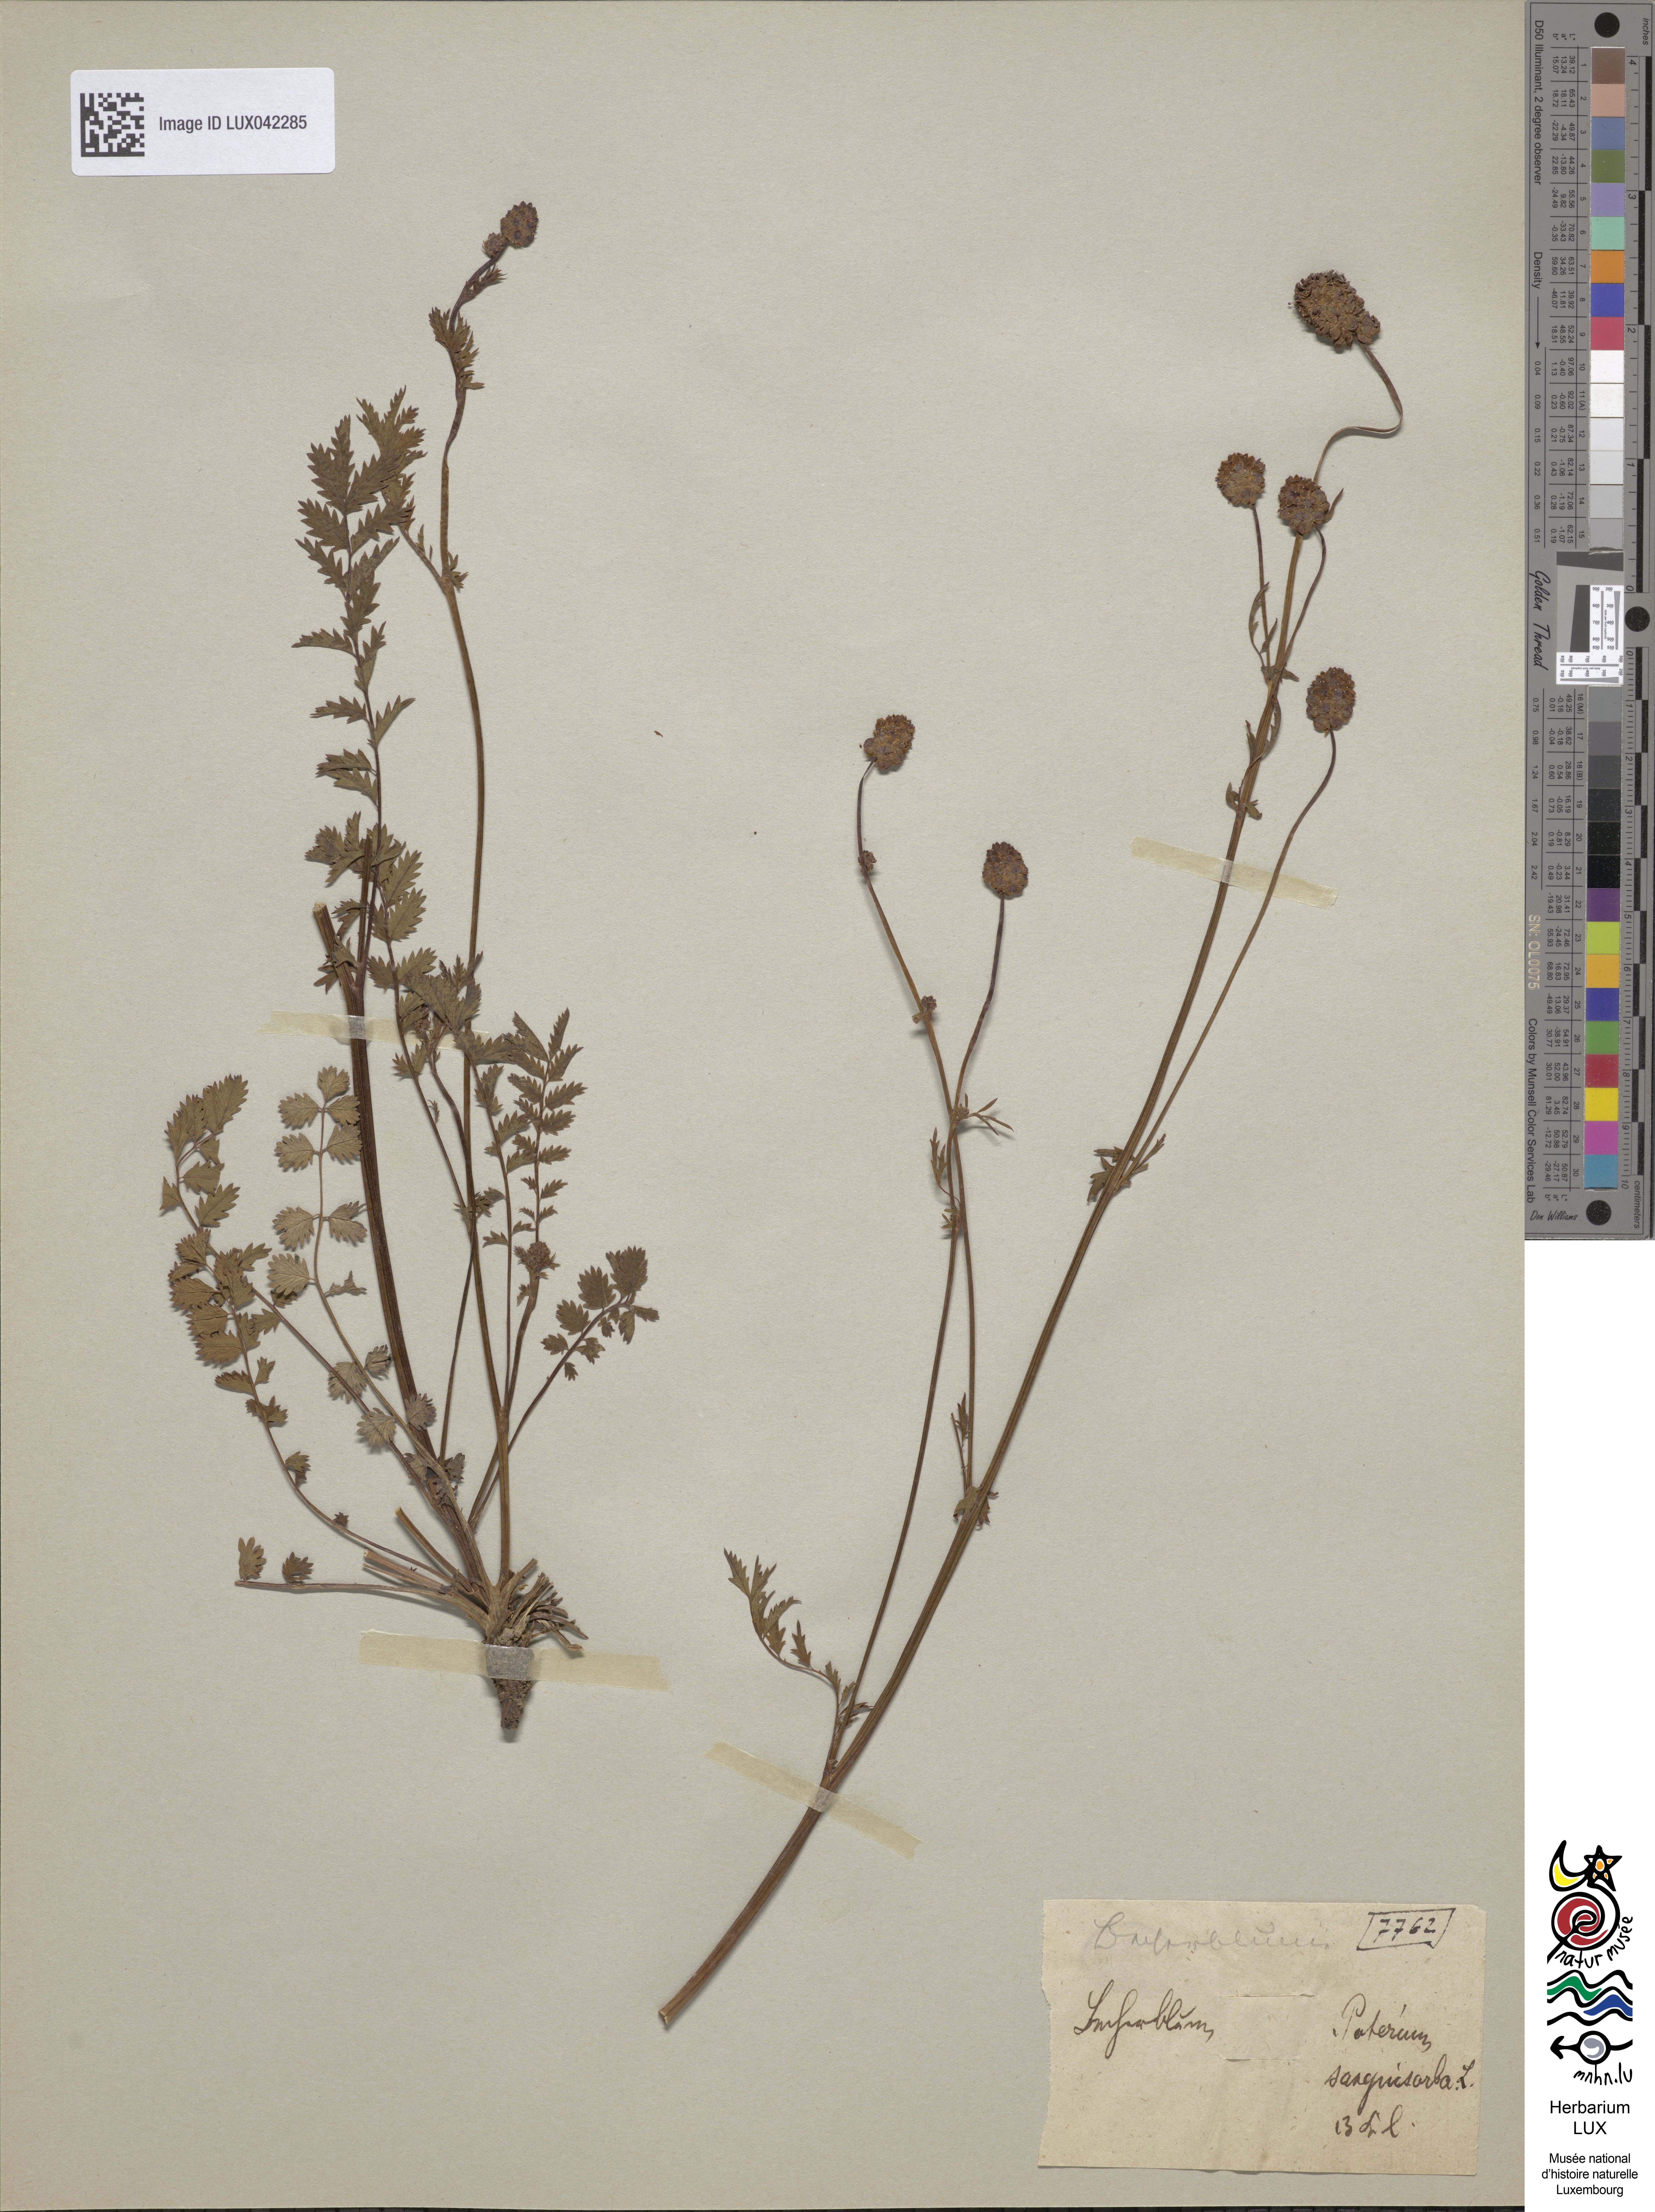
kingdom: Plantae
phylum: Tracheophyta
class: Magnoliopsida
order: Rosales
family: Rosaceae
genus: Poterium
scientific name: Poterium sanguisorba
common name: Salad burnet
